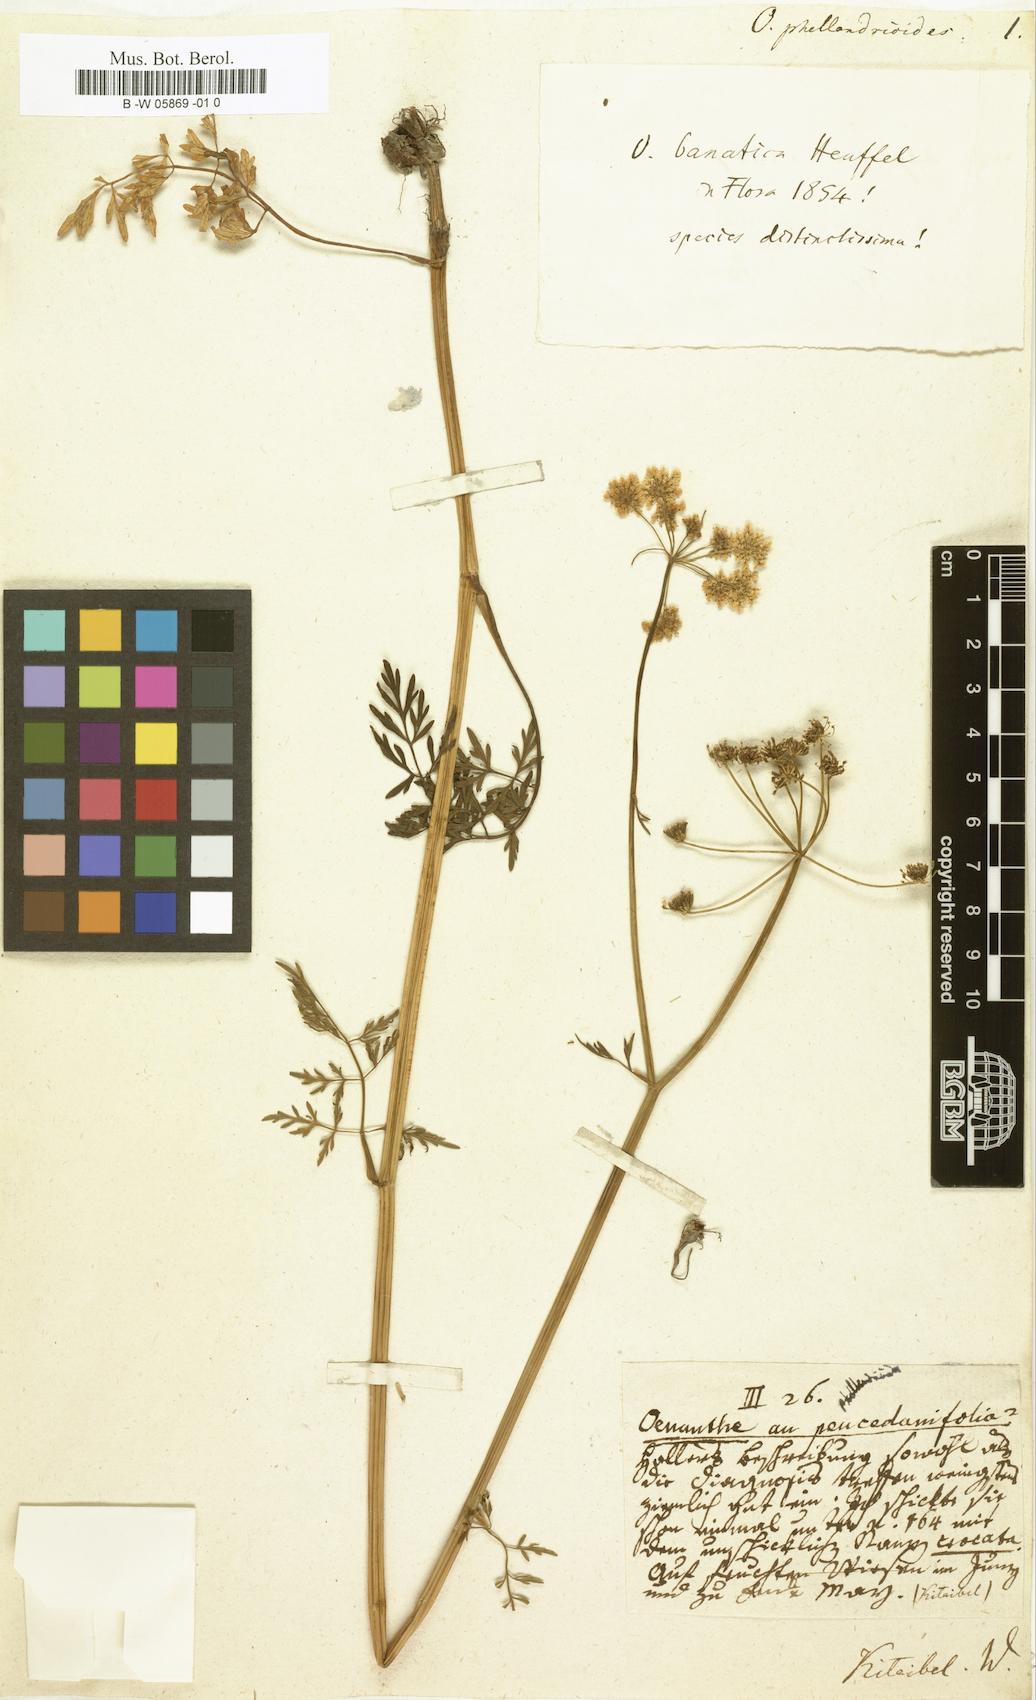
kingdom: Plantae
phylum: Tracheophyta
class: Magnoliopsida
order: Apiales
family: Apiaceae
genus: Oenanthe
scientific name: Oenanthe
